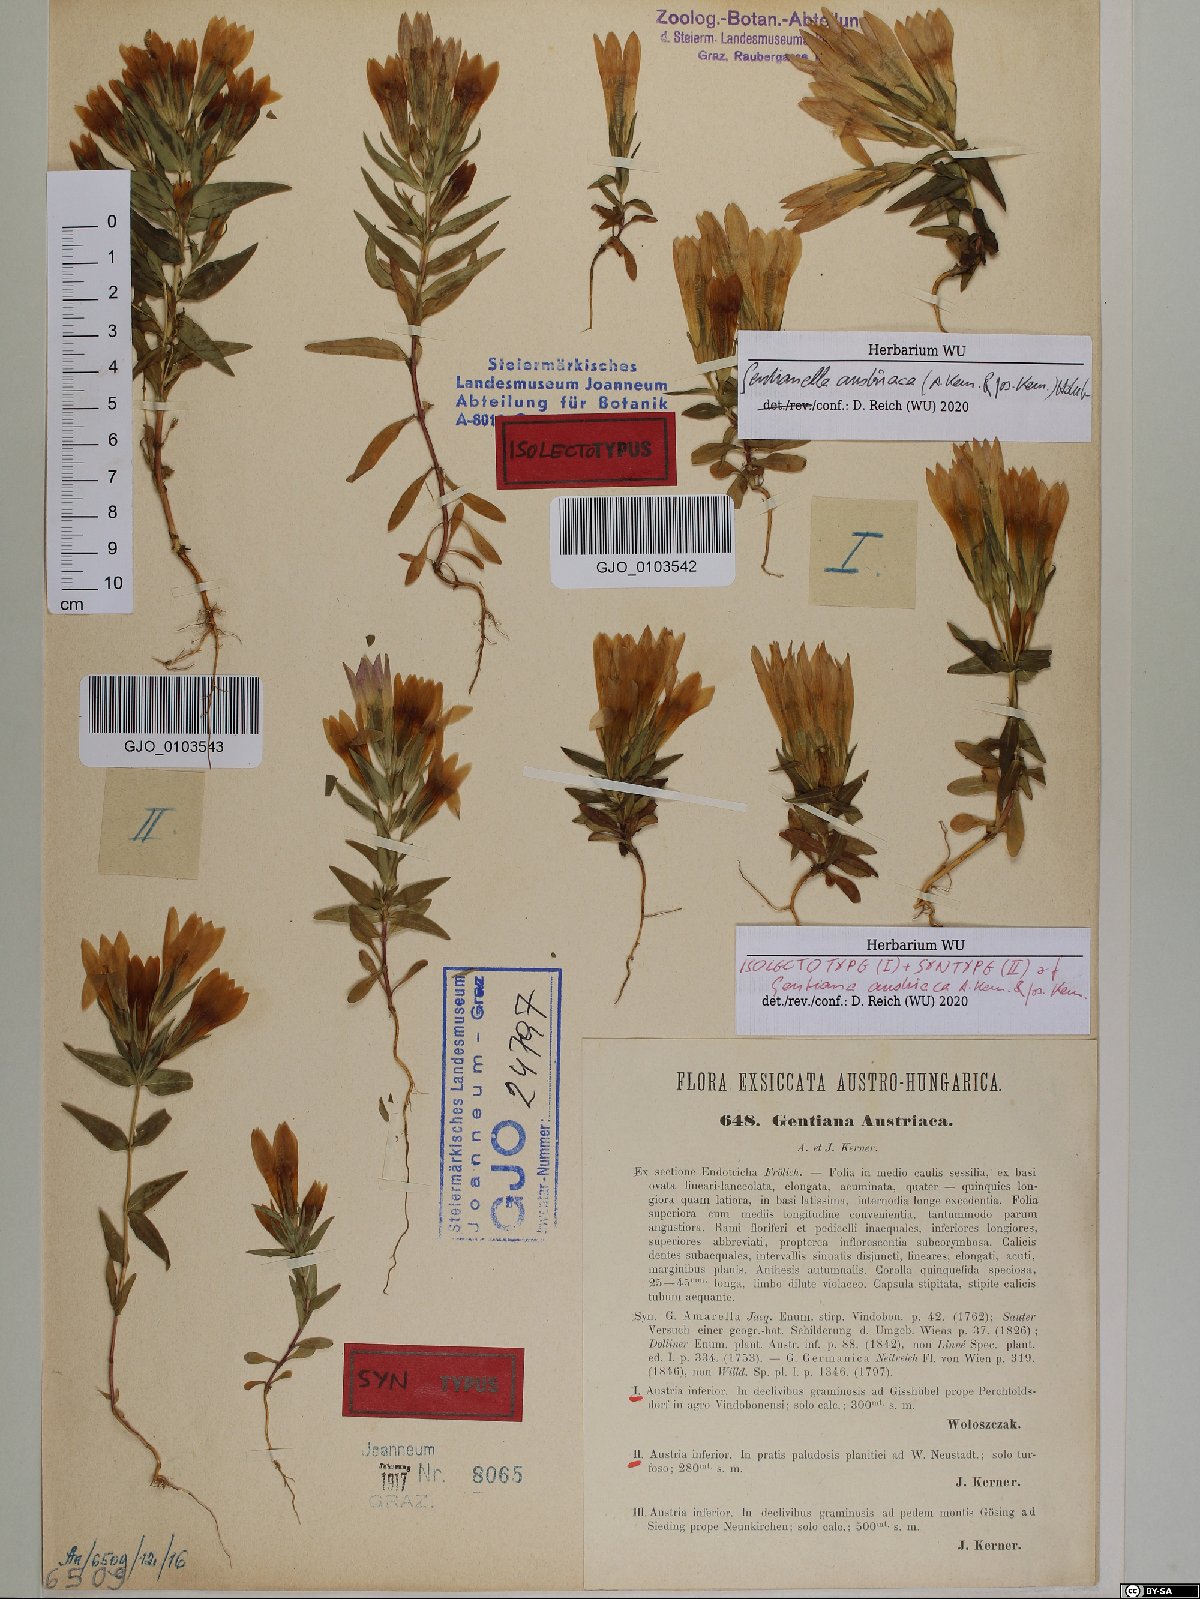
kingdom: Plantae
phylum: Tracheophyta
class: Magnoliopsida
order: Gentianales
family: Gentianaceae
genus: Gentianella
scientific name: Gentianella austriaca
